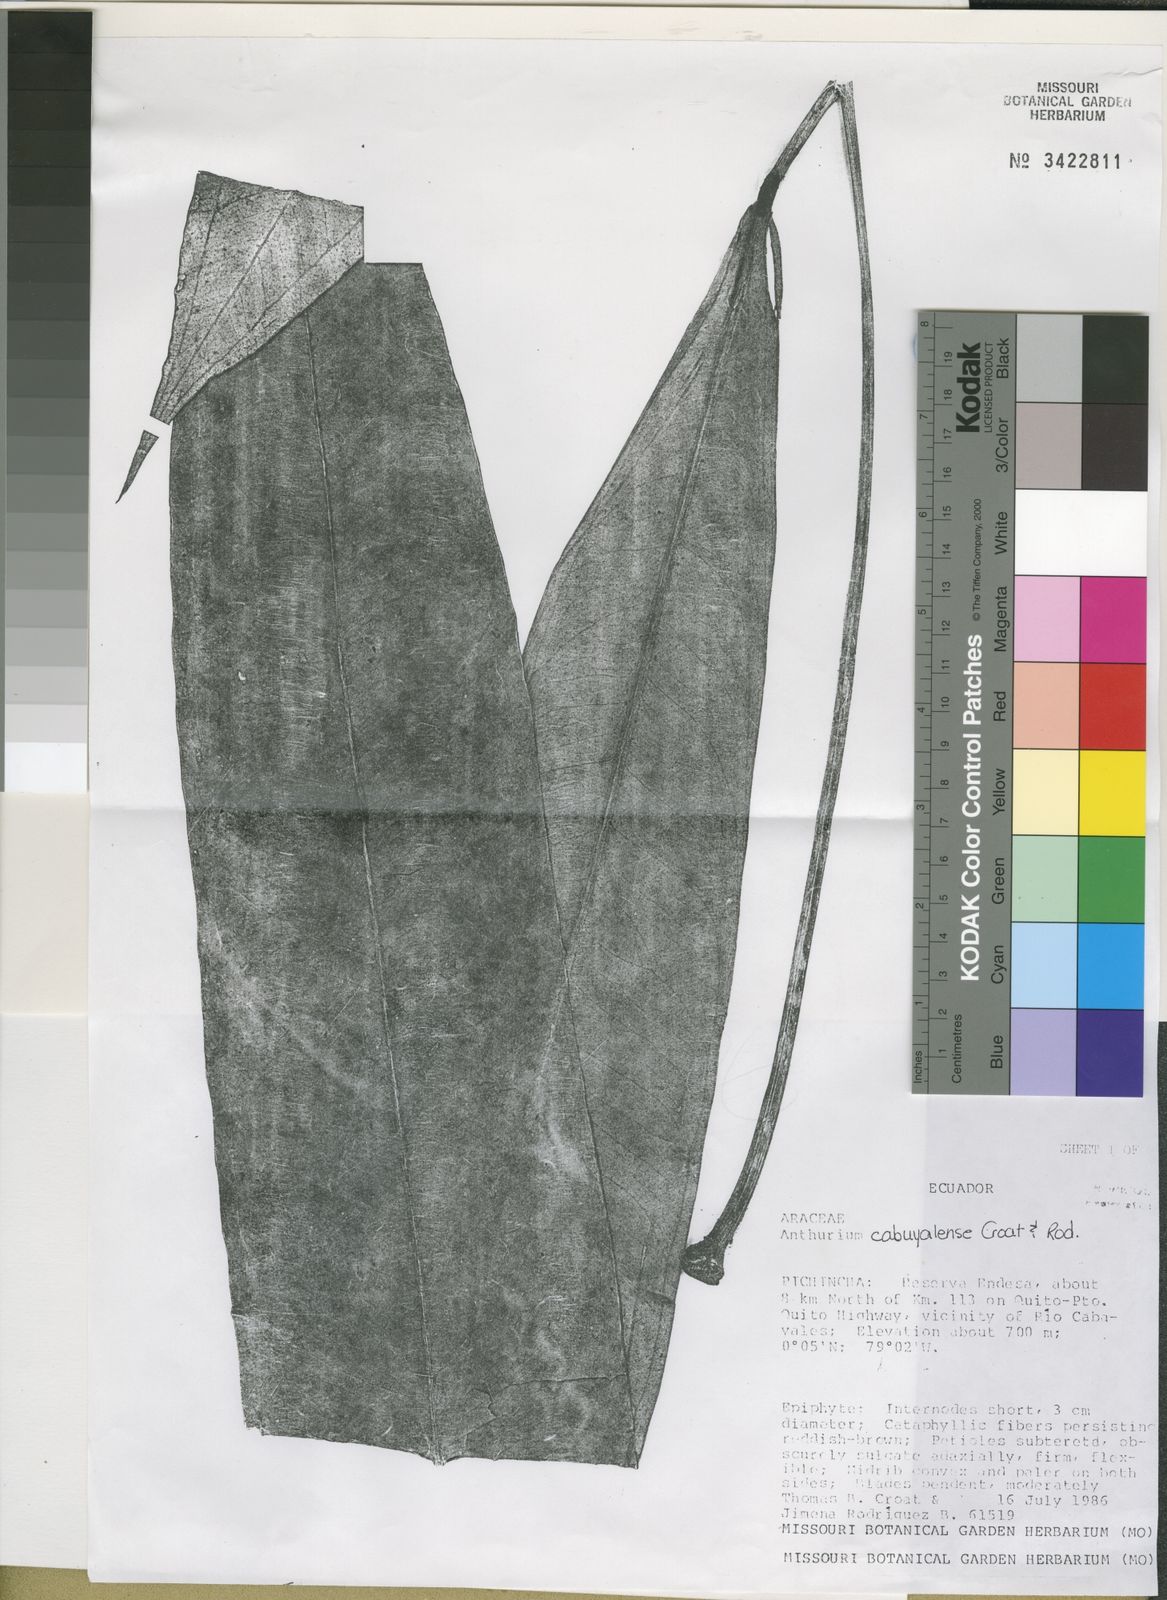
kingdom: Plantae
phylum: Tracheophyta
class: Liliopsida
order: Alismatales
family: Araceae
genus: Anthurium
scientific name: Anthurium cabuyalense
